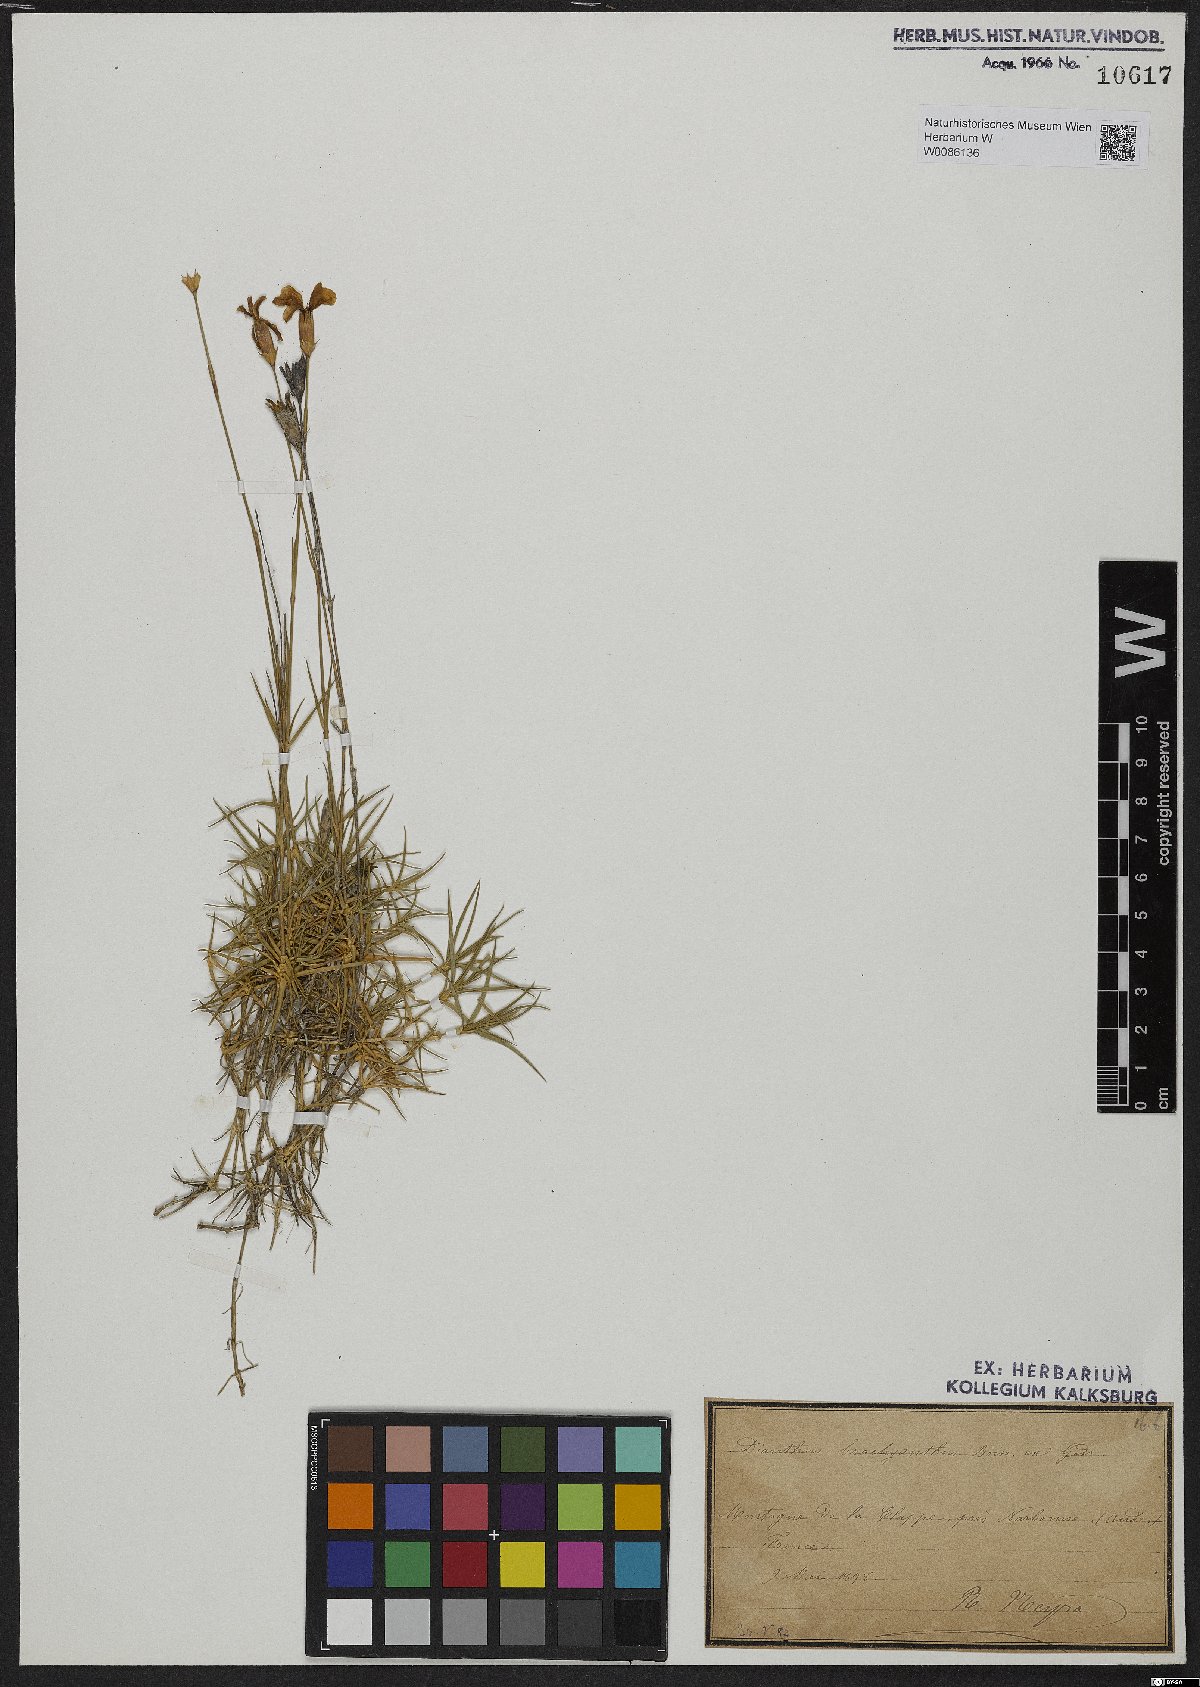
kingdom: Plantae
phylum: Tracheophyta
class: Magnoliopsida
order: Caryophyllales
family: Caryophyllaceae
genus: Dianthus
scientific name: Dianthus pungens
